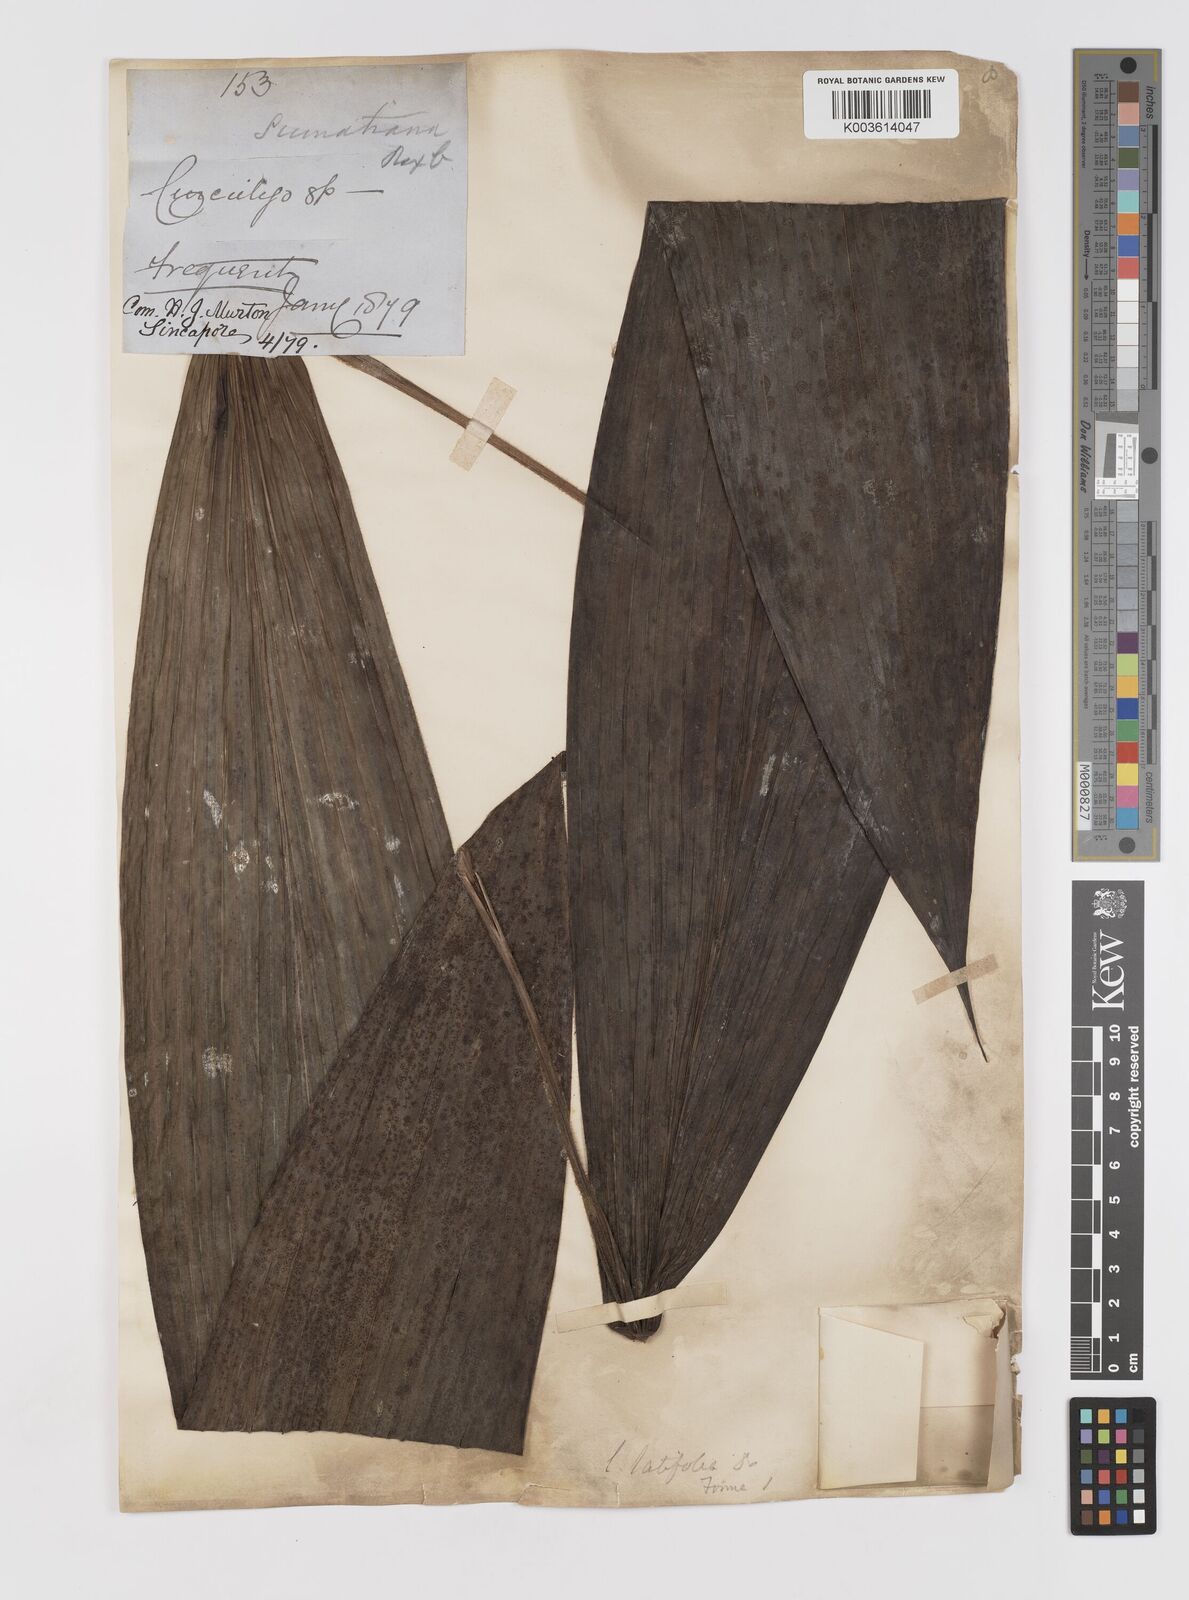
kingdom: Plantae
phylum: Tracheophyta
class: Liliopsida
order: Asparagales
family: Hypoxidaceae
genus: Curculigo
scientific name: Curculigo
